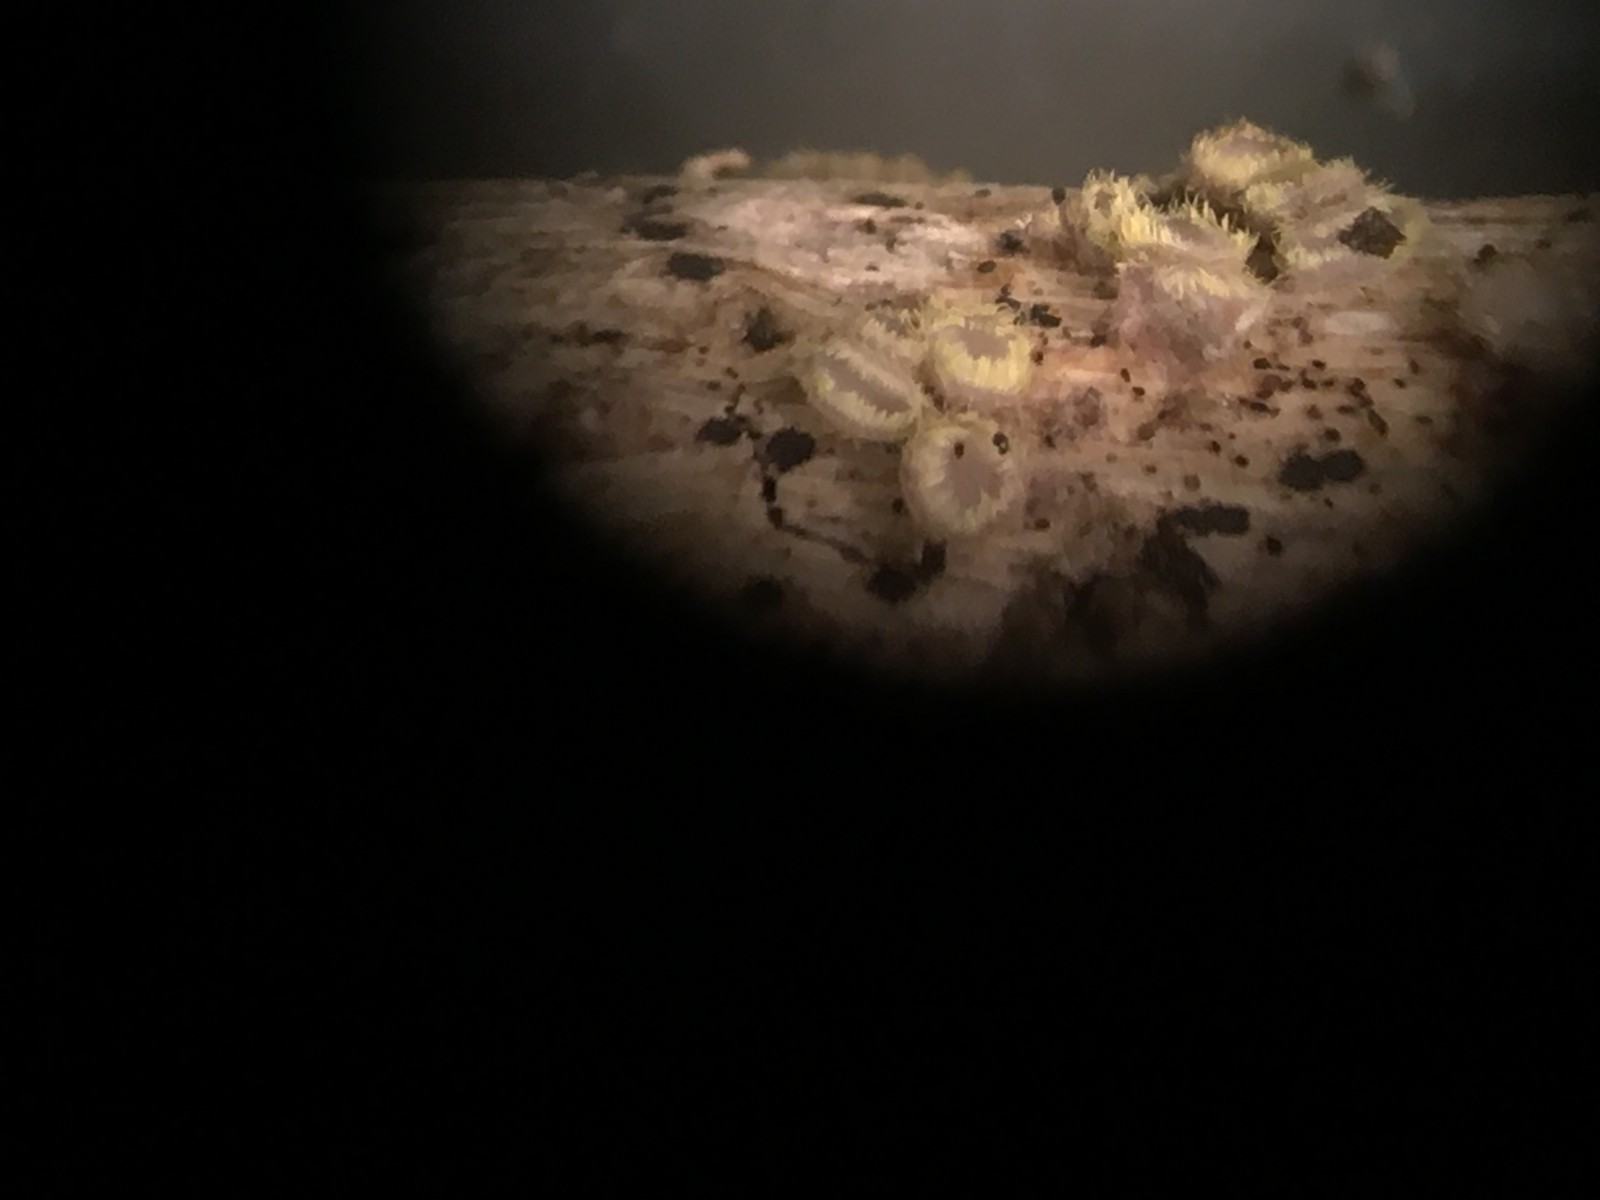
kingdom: Fungi
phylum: Ascomycota
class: Leotiomycetes
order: Helotiales
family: Lachnaceae
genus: Lachnum
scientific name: Lachnum sulphureum
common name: svovlhåret frynseskive
